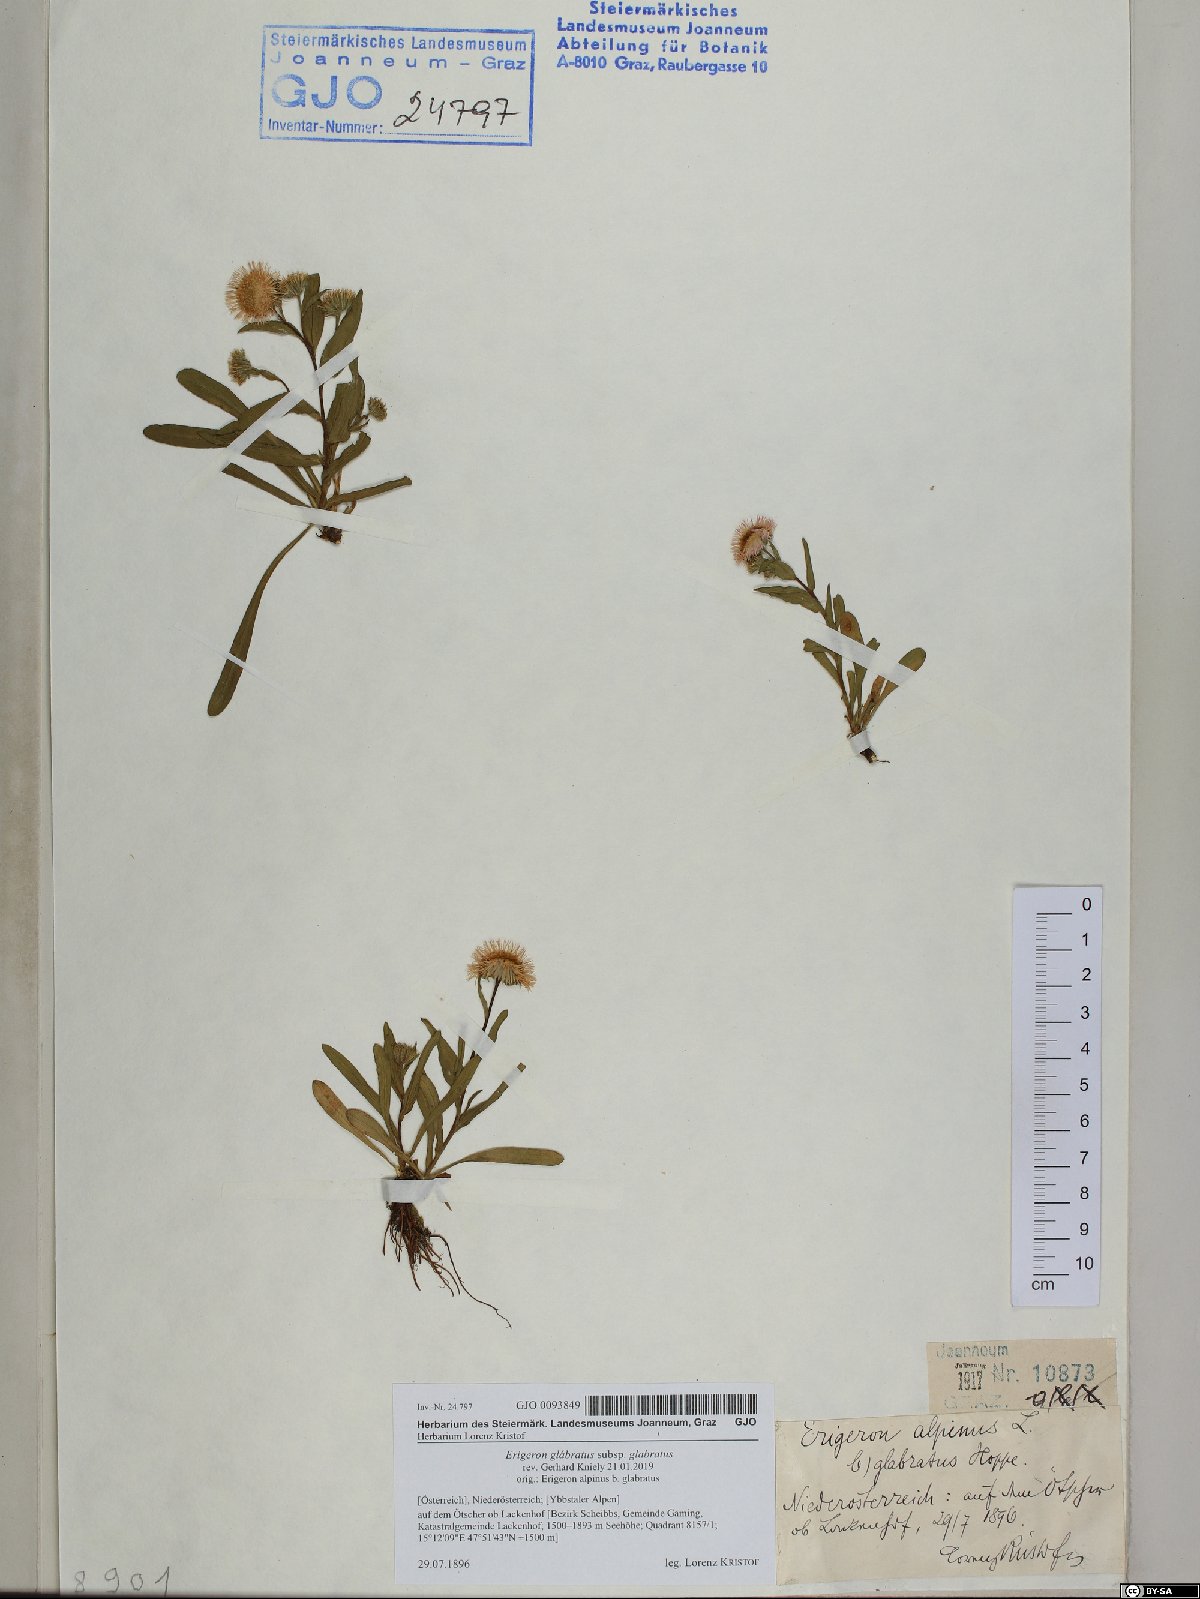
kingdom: Plantae
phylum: Tracheophyta
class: Magnoliopsida
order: Asterales
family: Asteraceae
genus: Erigeron
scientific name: Erigeron glabratus
